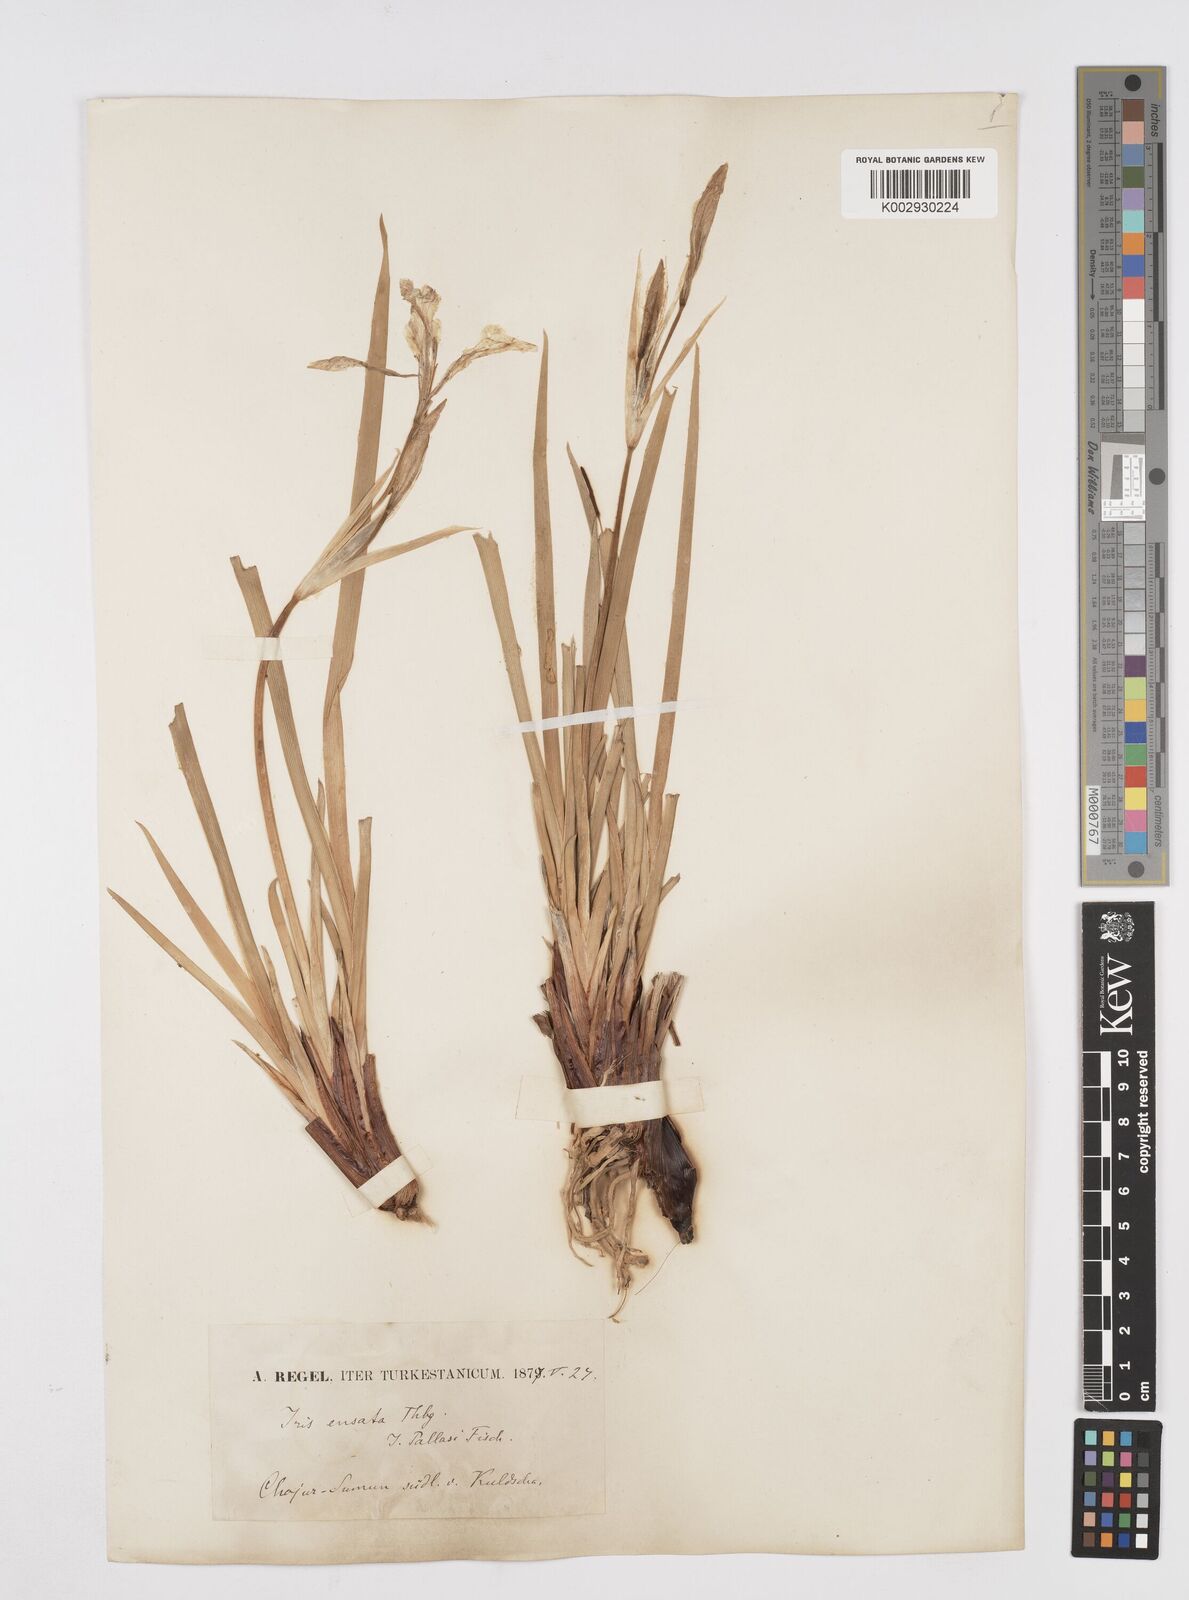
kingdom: Plantae
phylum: Tracheophyta
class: Liliopsida
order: Asparagales
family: Iridaceae
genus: Iris
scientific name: Iris ensata
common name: Beaked iris
